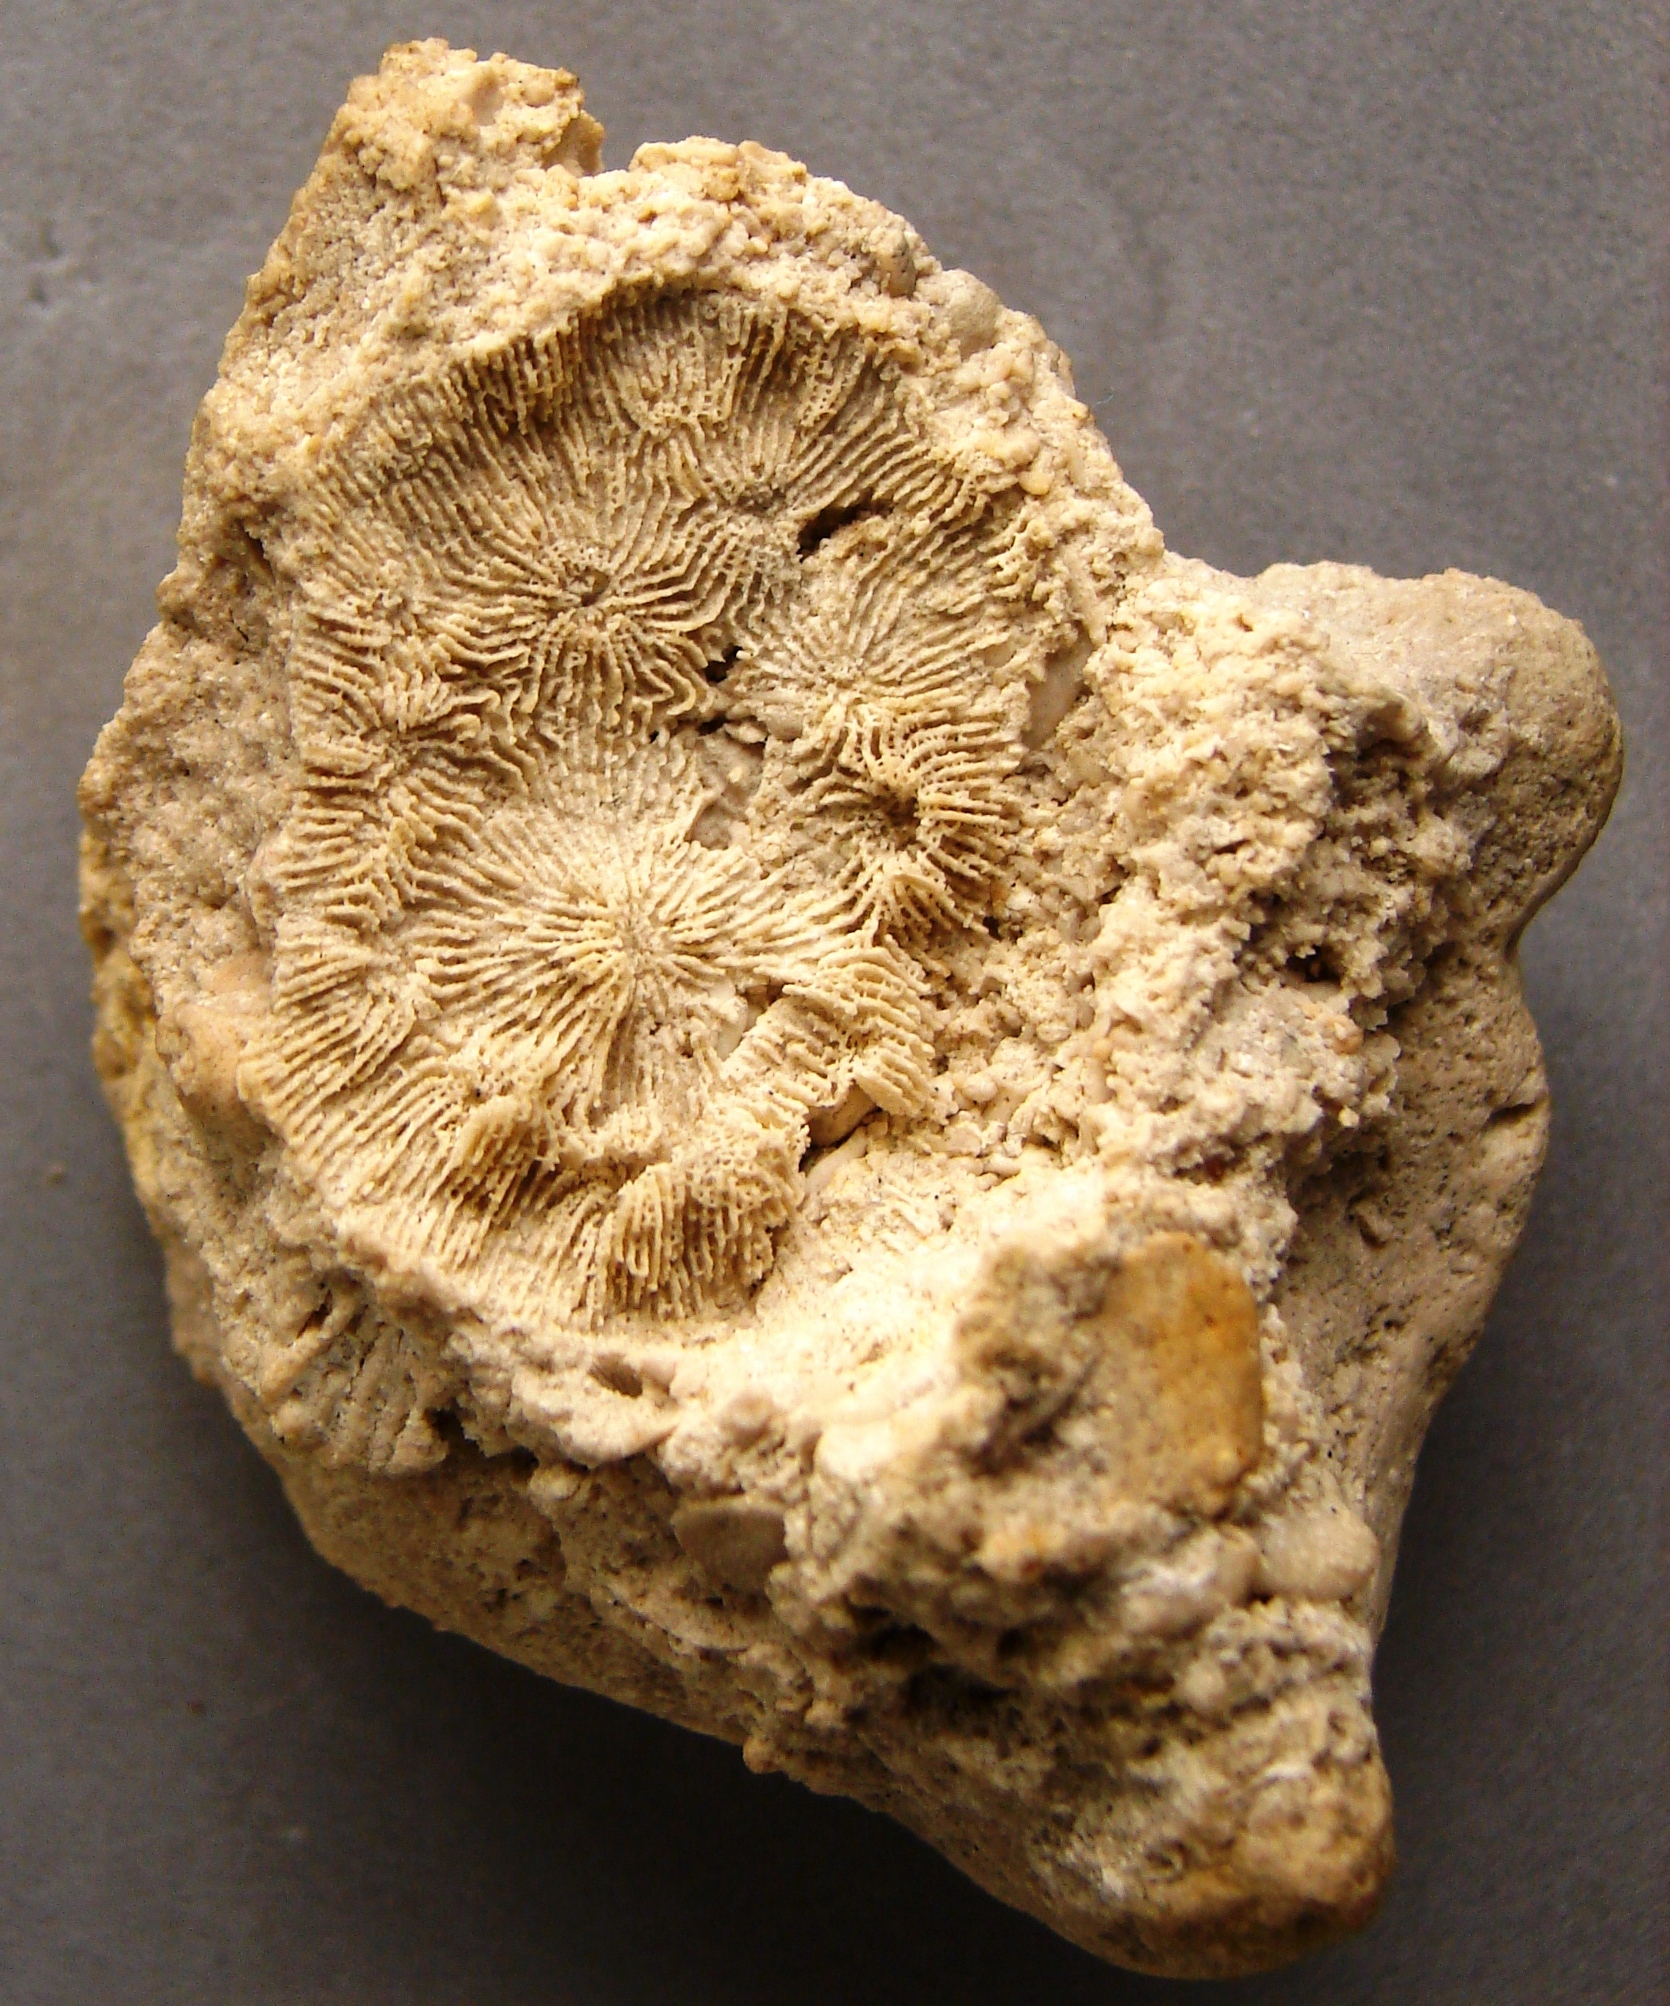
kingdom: Animalia
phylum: Cnidaria
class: Anthozoa
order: Scleractinia
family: Thamnasteriidae
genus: Thamnasteria
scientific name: Thamnasteria geometrica
